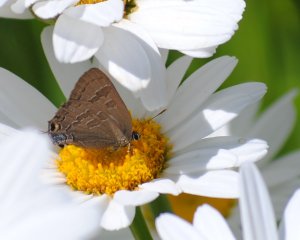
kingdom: Animalia
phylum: Arthropoda
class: Insecta
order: Lepidoptera
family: Lycaenidae
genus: Strymon
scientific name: Strymon caryaevorus
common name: Hickory Hairstreak
